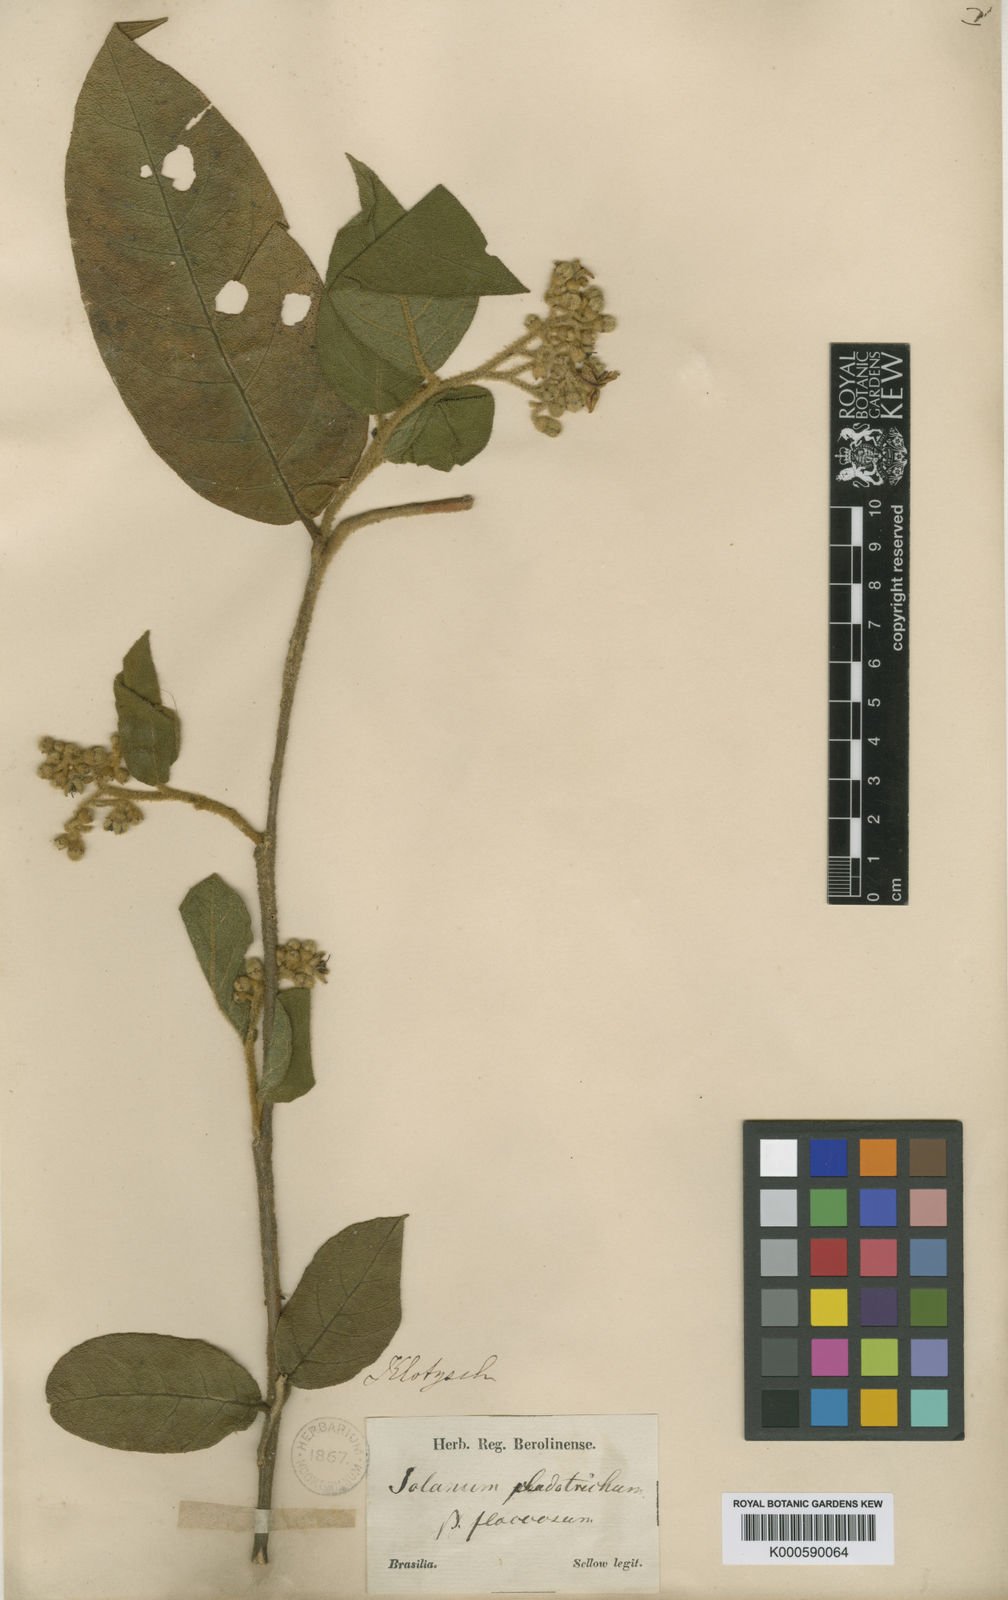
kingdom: Plantae
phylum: Tracheophyta
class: Magnoliopsida
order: Solanales
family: Solanaceae
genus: Solanum
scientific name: Solanum clandestinum
